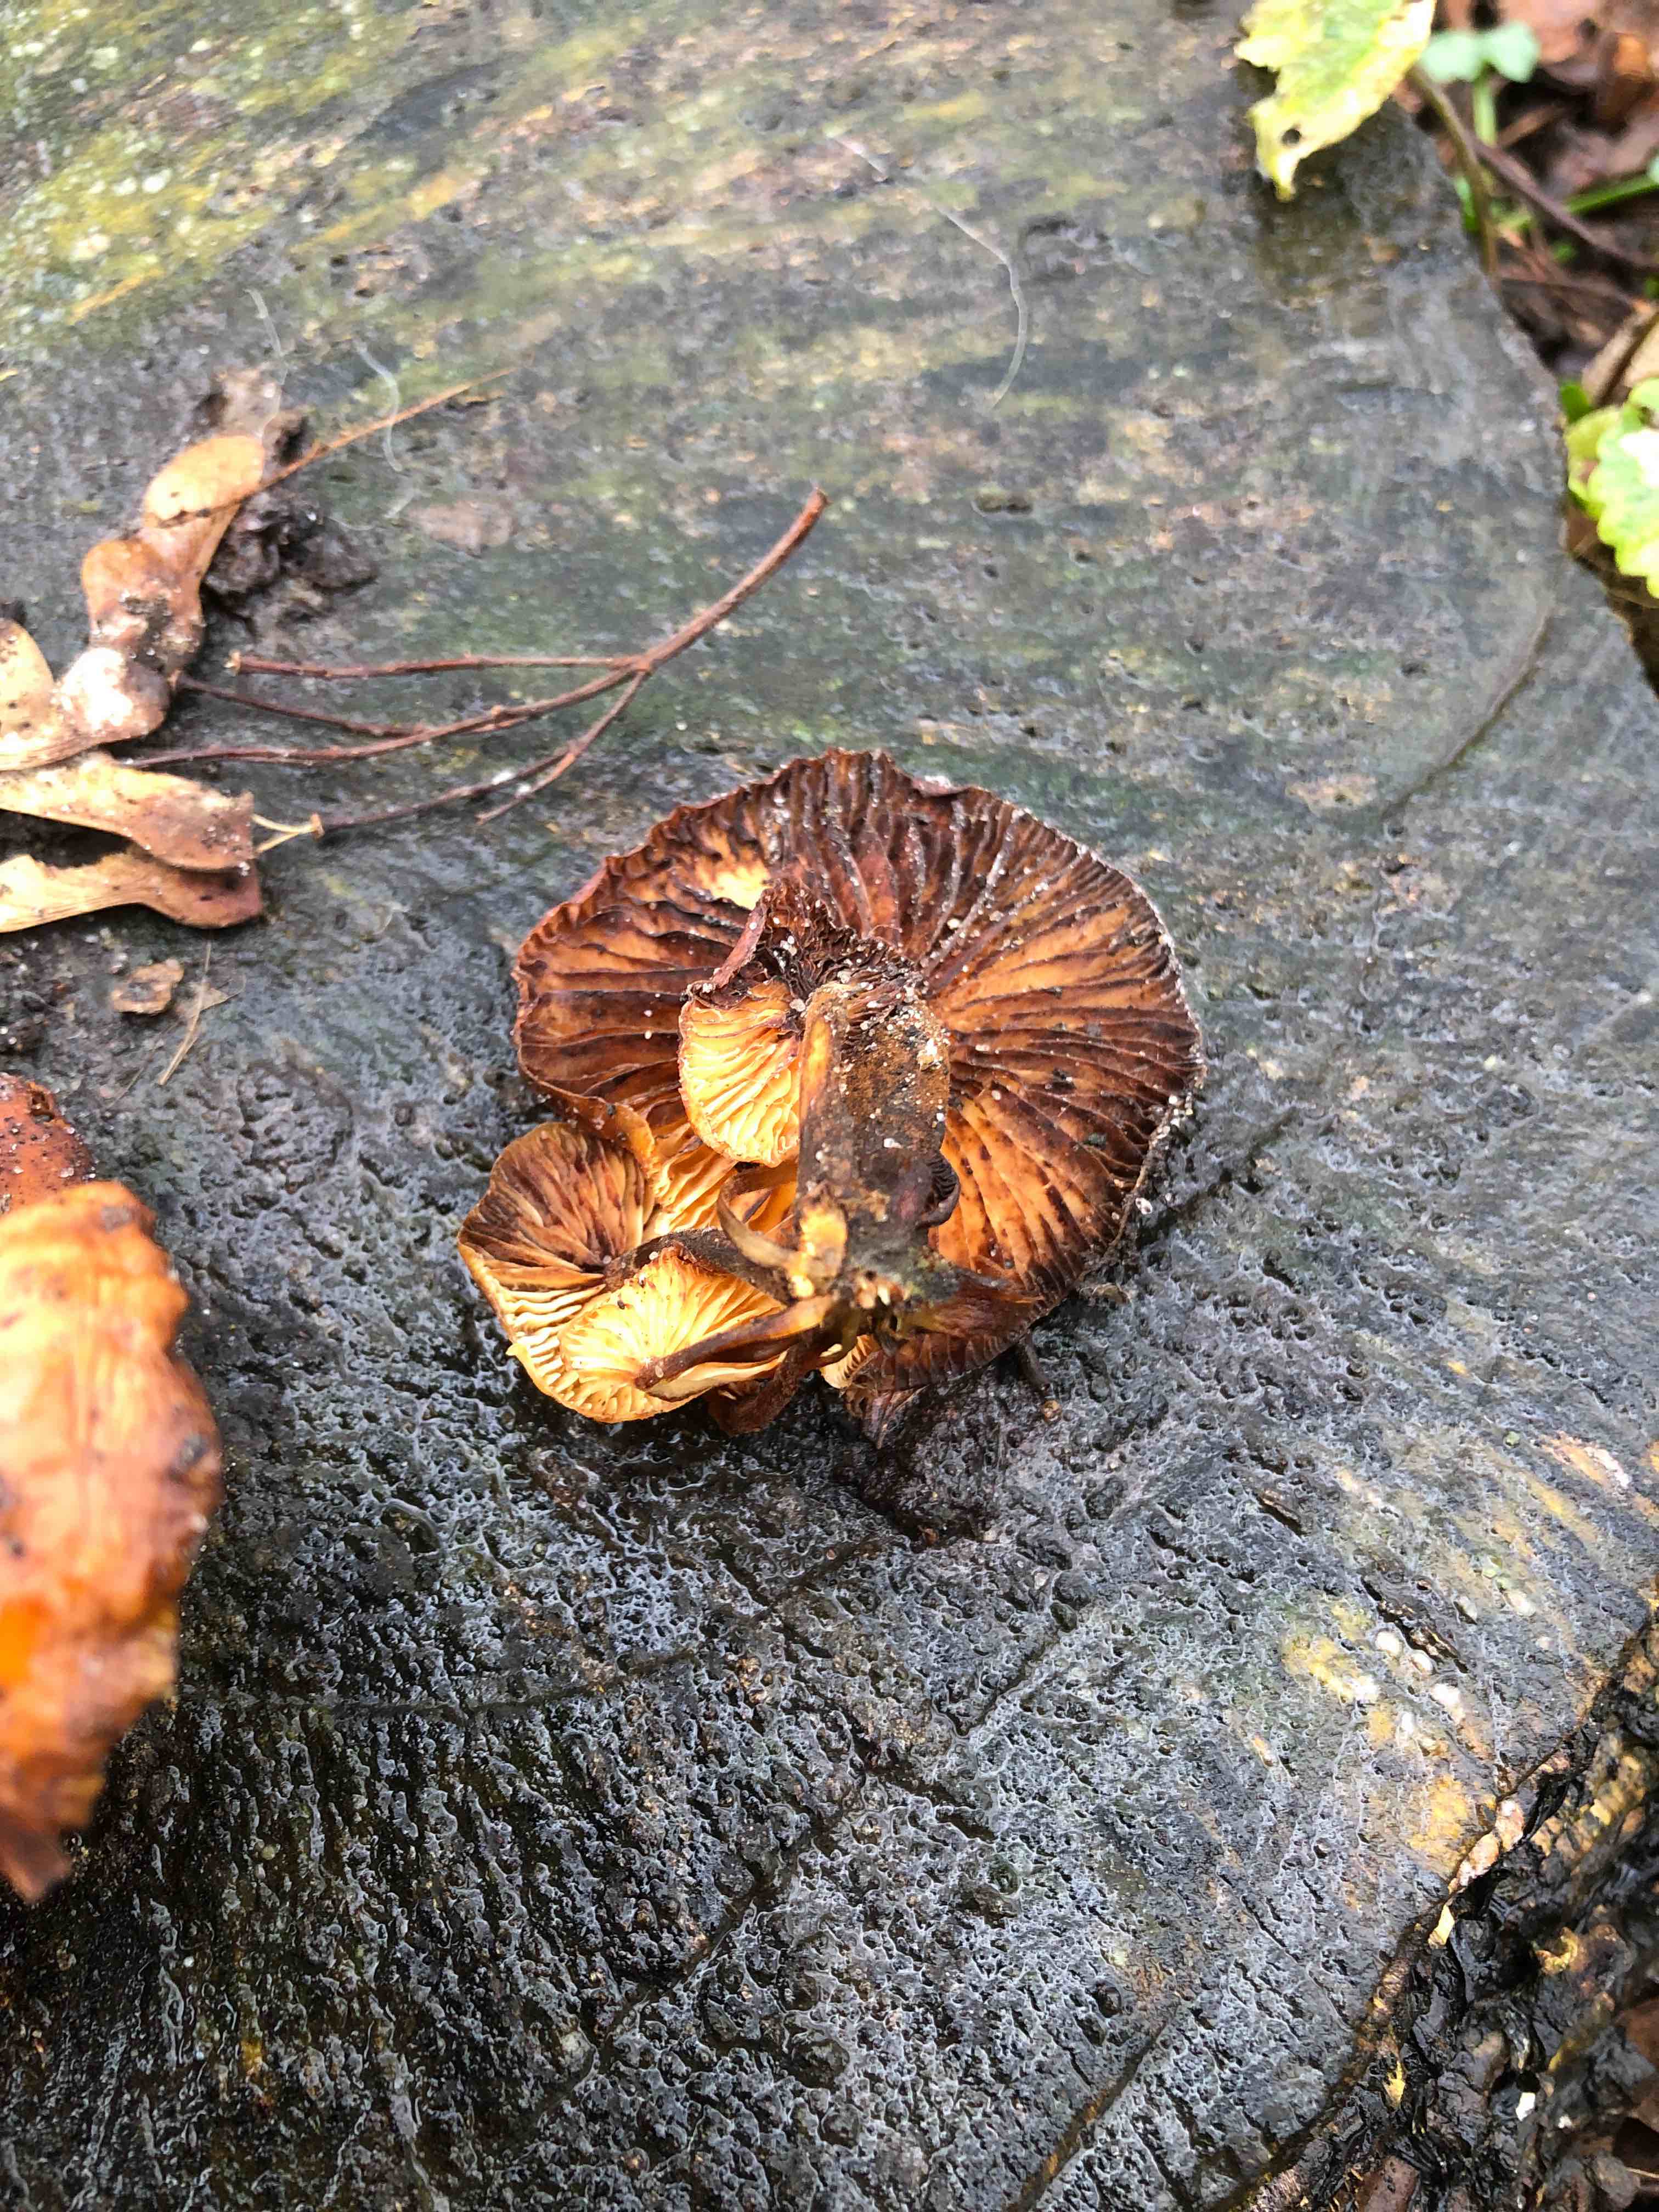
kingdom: Fungi
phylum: Basidiomycota
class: Agaricomycetes
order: Agaricales
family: Physalacriaceae
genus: Flammulina
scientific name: Flammulina velutipes
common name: gul fløjlsfod
